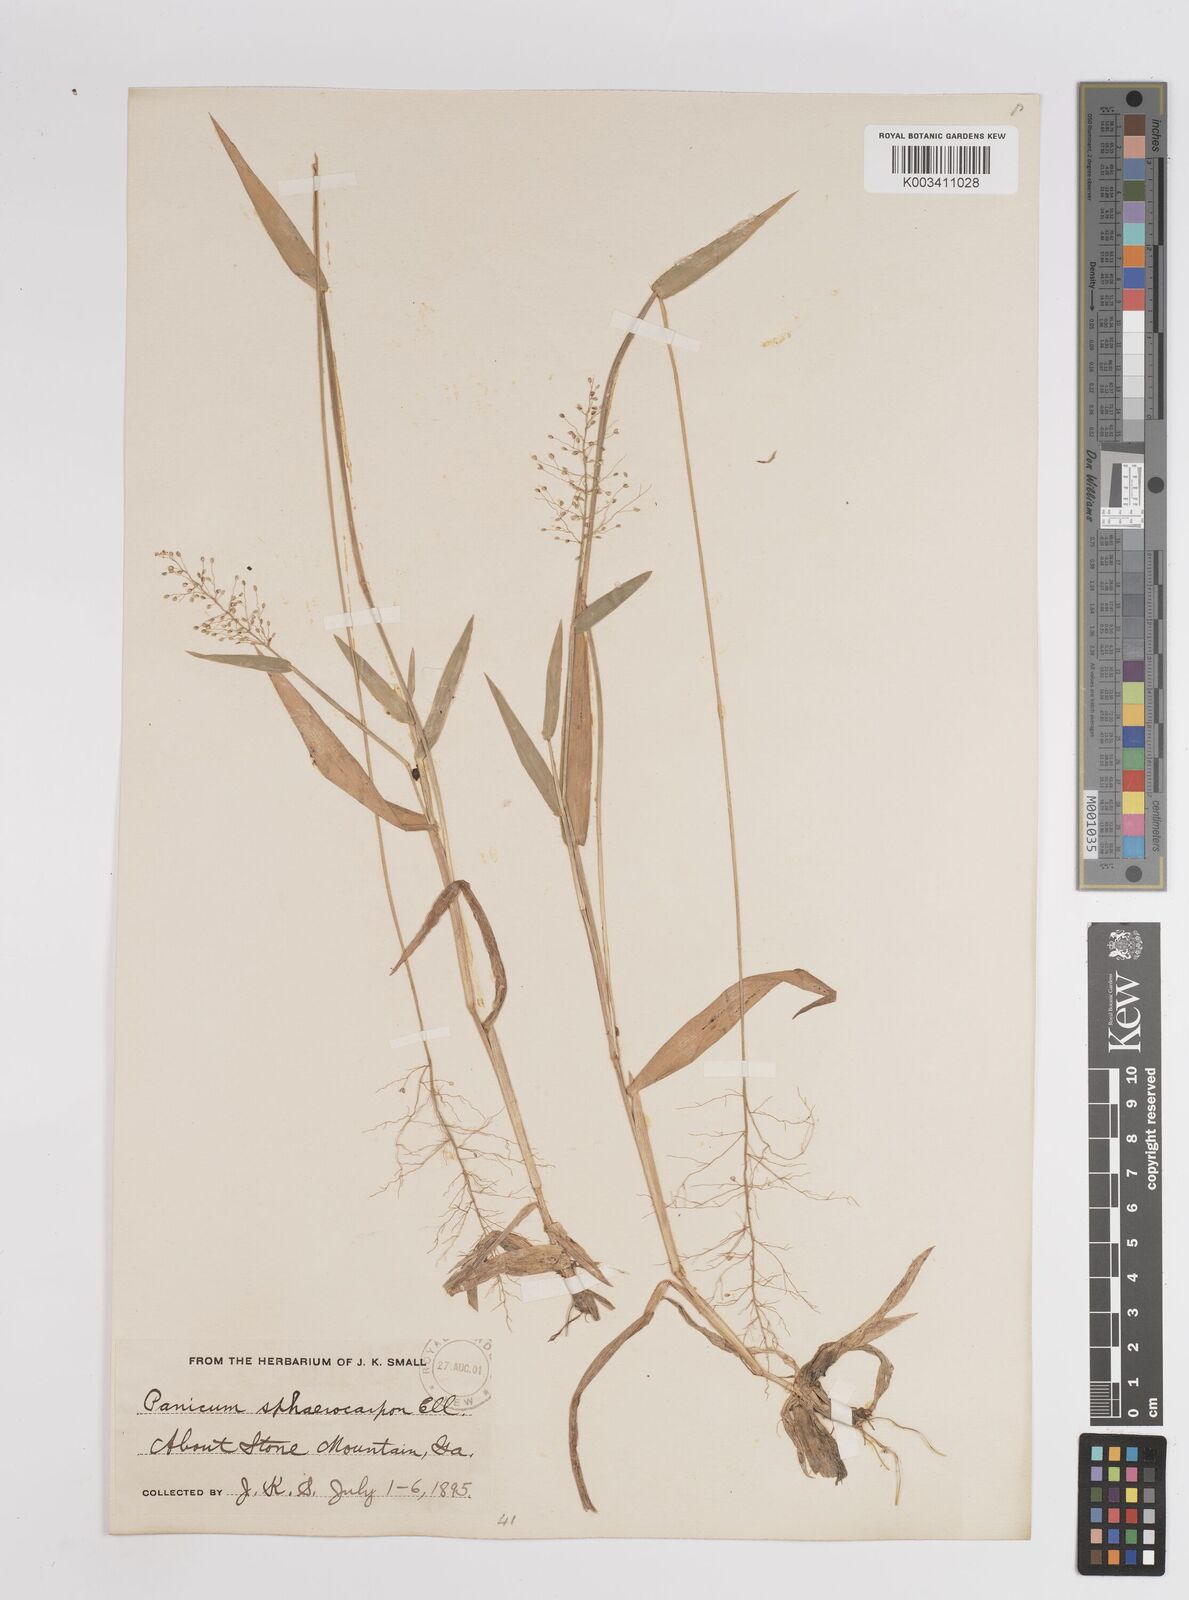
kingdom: Plantae
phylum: Tracheophyta
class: Liliopsida
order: Poales
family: Poaceae
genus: Setaria
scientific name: Setaria tenax
